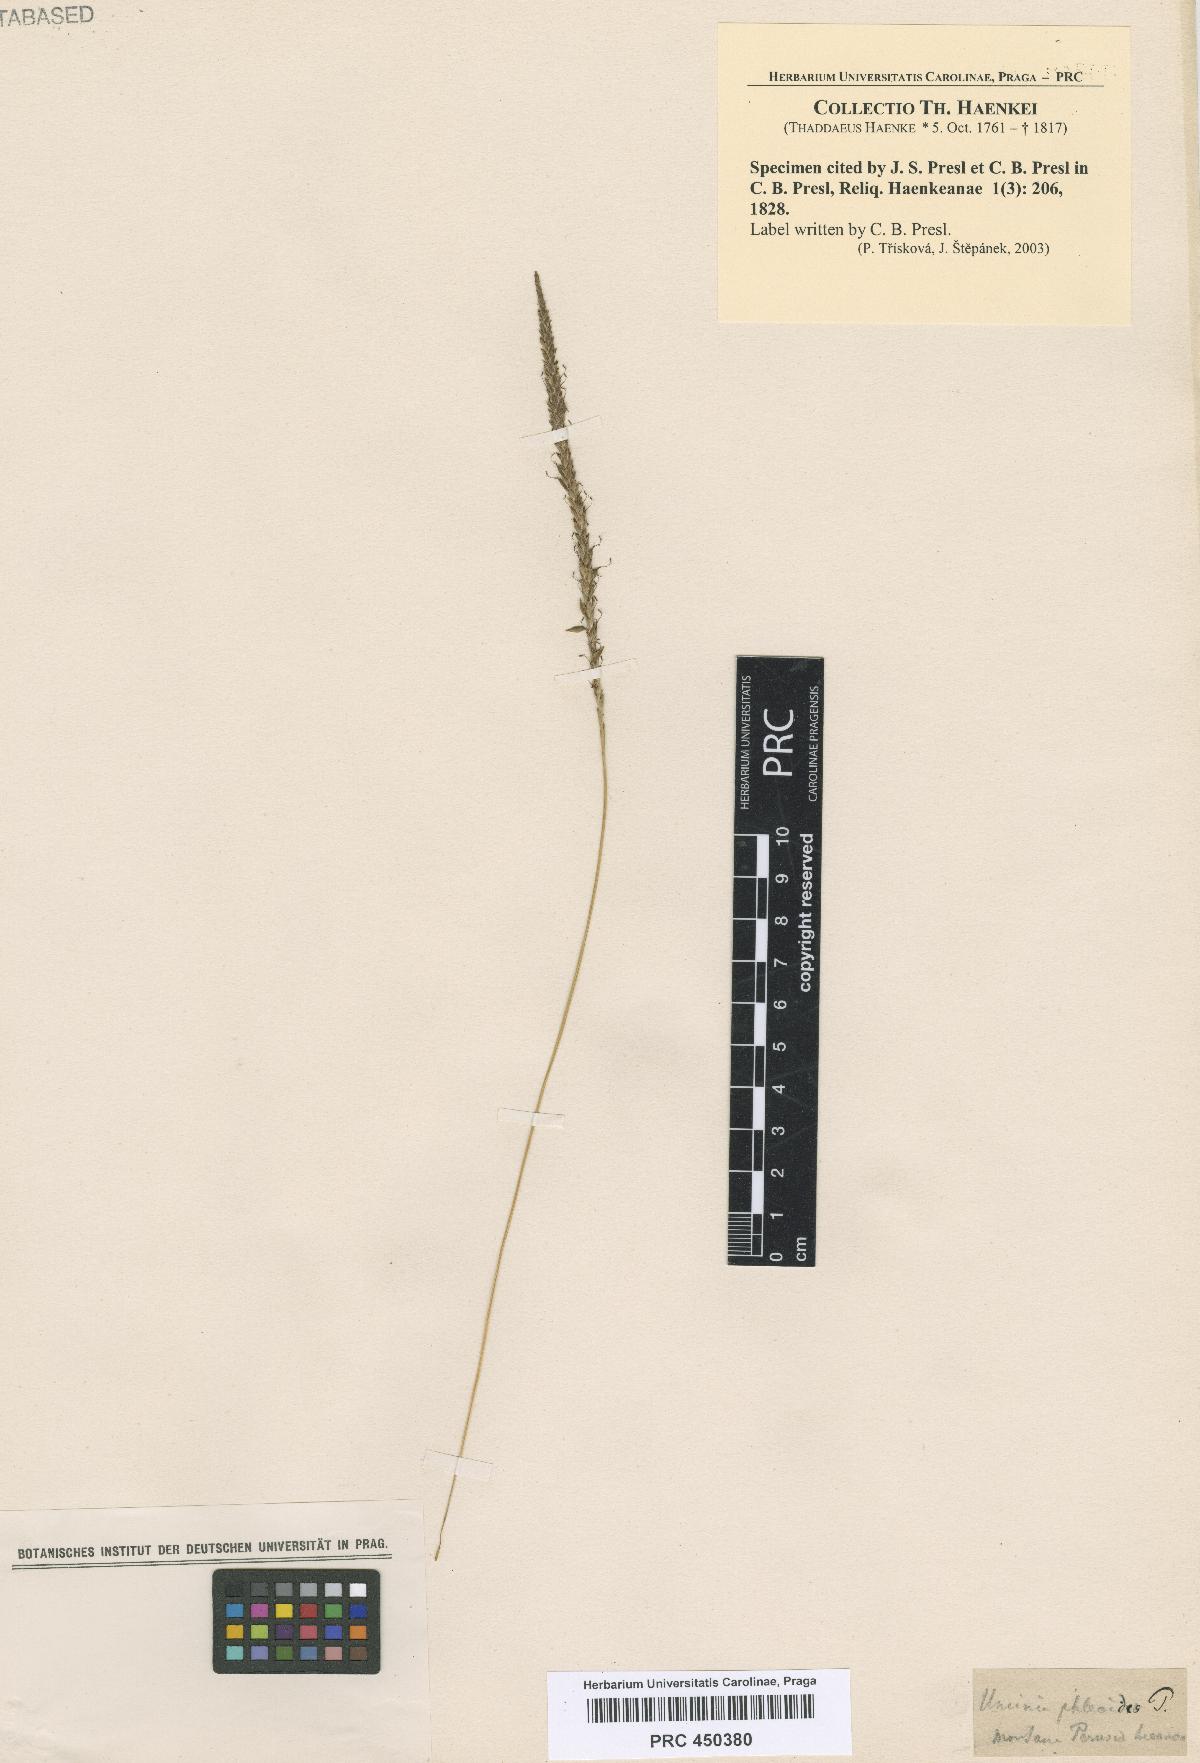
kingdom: Fungi
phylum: Ascomycota
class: Leotiomycetes
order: Helotiales
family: Hamatocanthoscyphaceae
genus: Uncinia
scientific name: Uncinia
